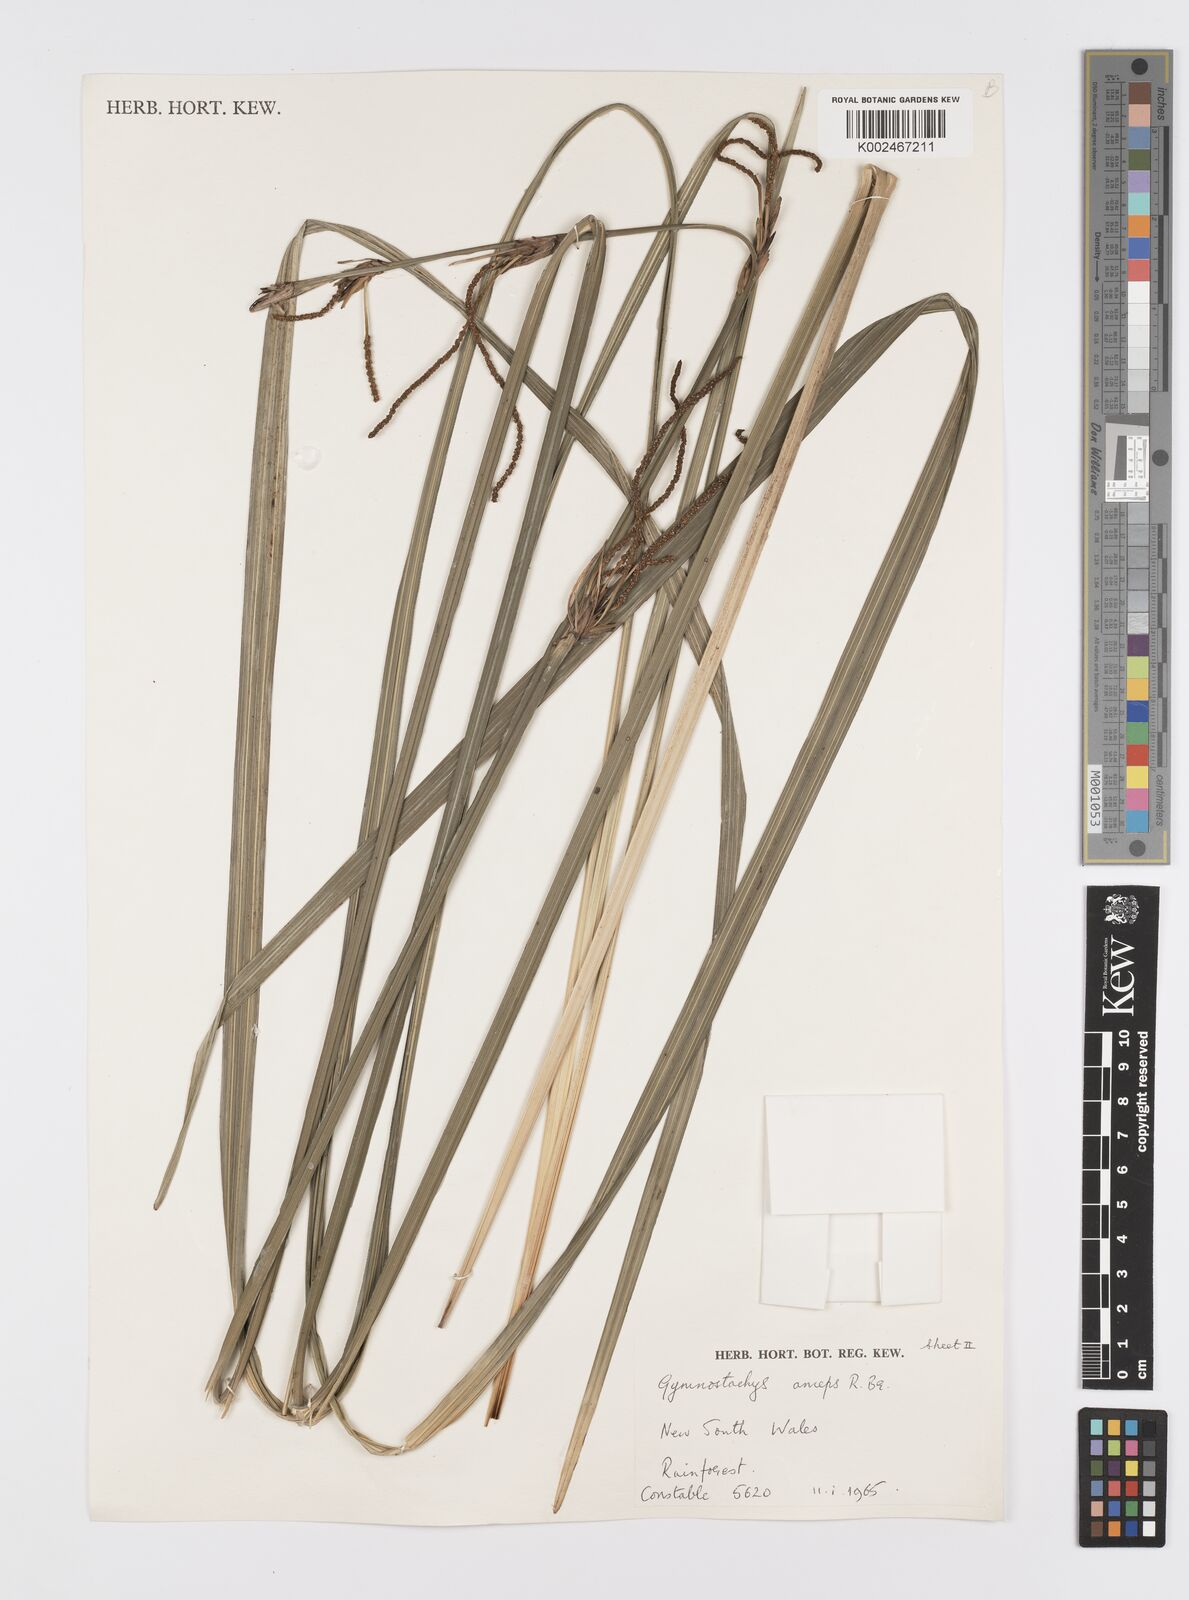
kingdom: Plantae
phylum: Tracheophyta
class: Liliopsida
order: Alismatales
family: Araceae
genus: Gymnostachys
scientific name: Gymnostachys anceps
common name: Settler's-flax
